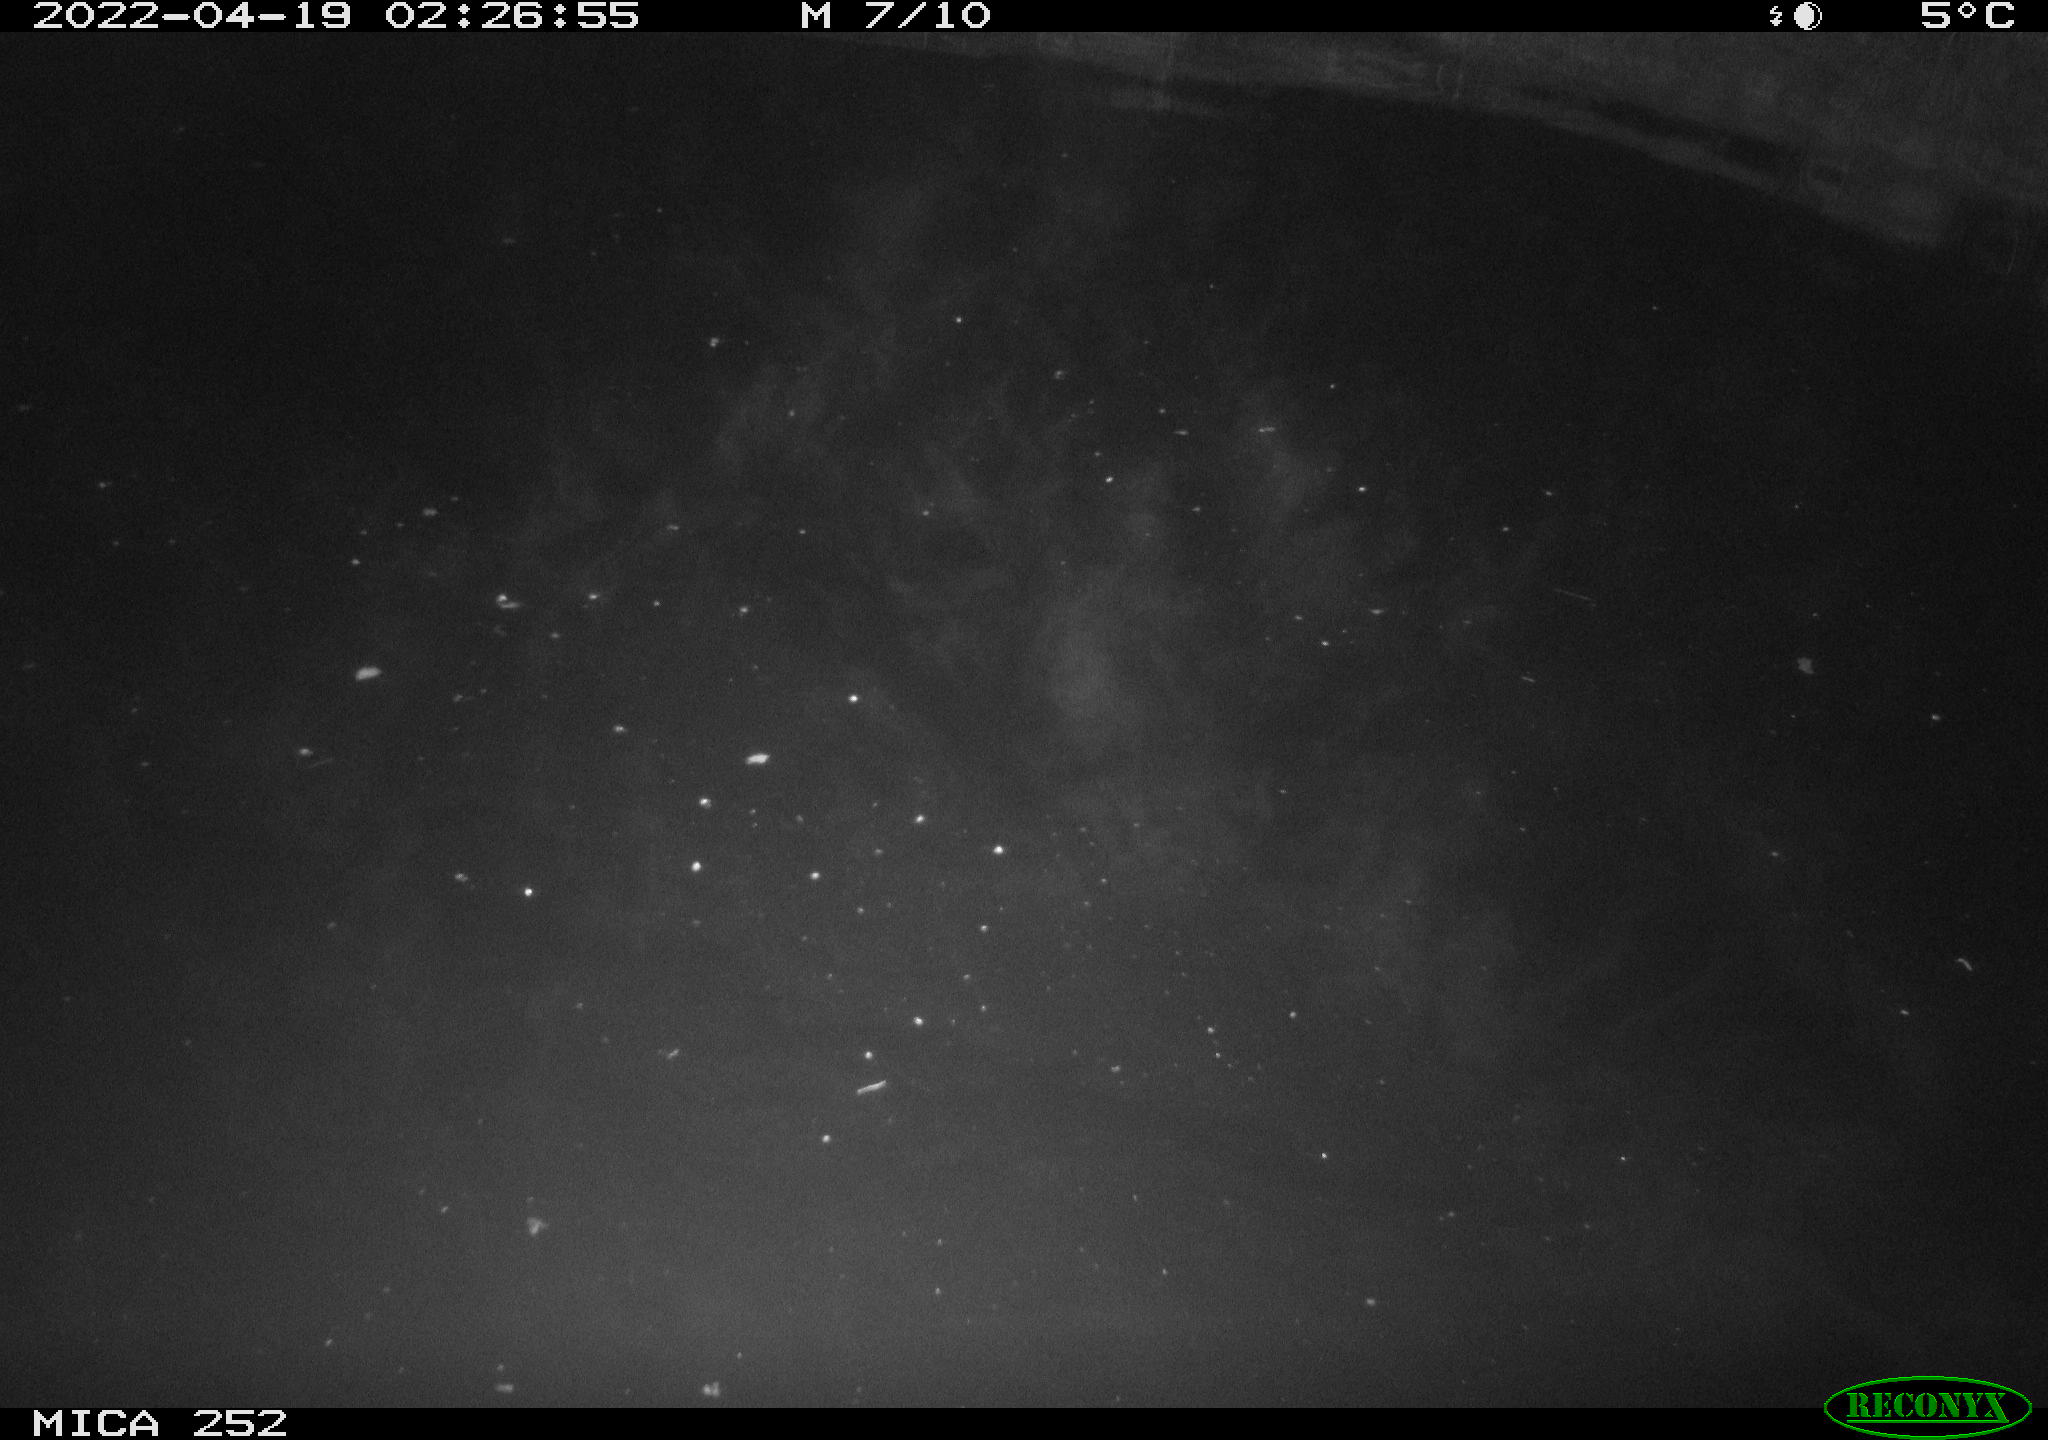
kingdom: Animalia
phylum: Chordata
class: Mammalia
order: Rodentia
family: Castoridae
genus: Castor
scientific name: Castor fiber
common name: Eurasian beaver
